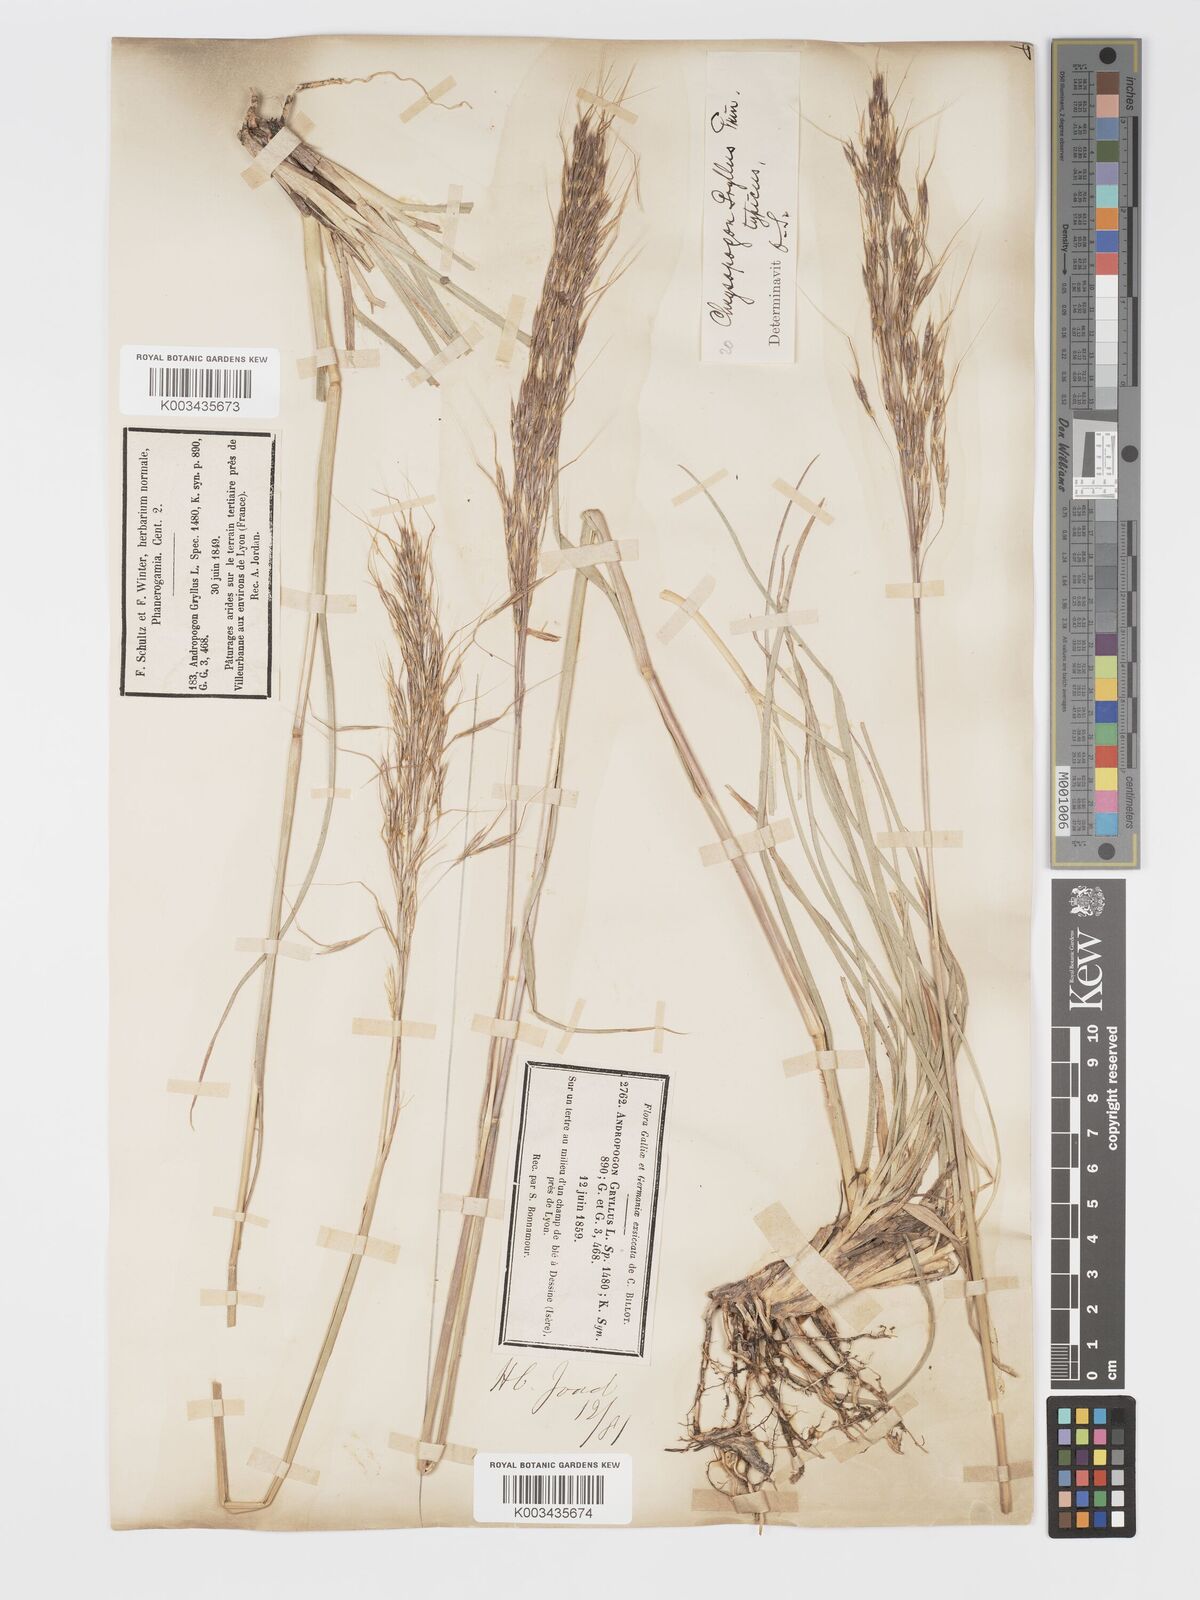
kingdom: Plantae
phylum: Tracheophyta
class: Liliopsida
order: Poales
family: Poaceae
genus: Chrysopogon
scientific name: Chrysopogon gryllus
